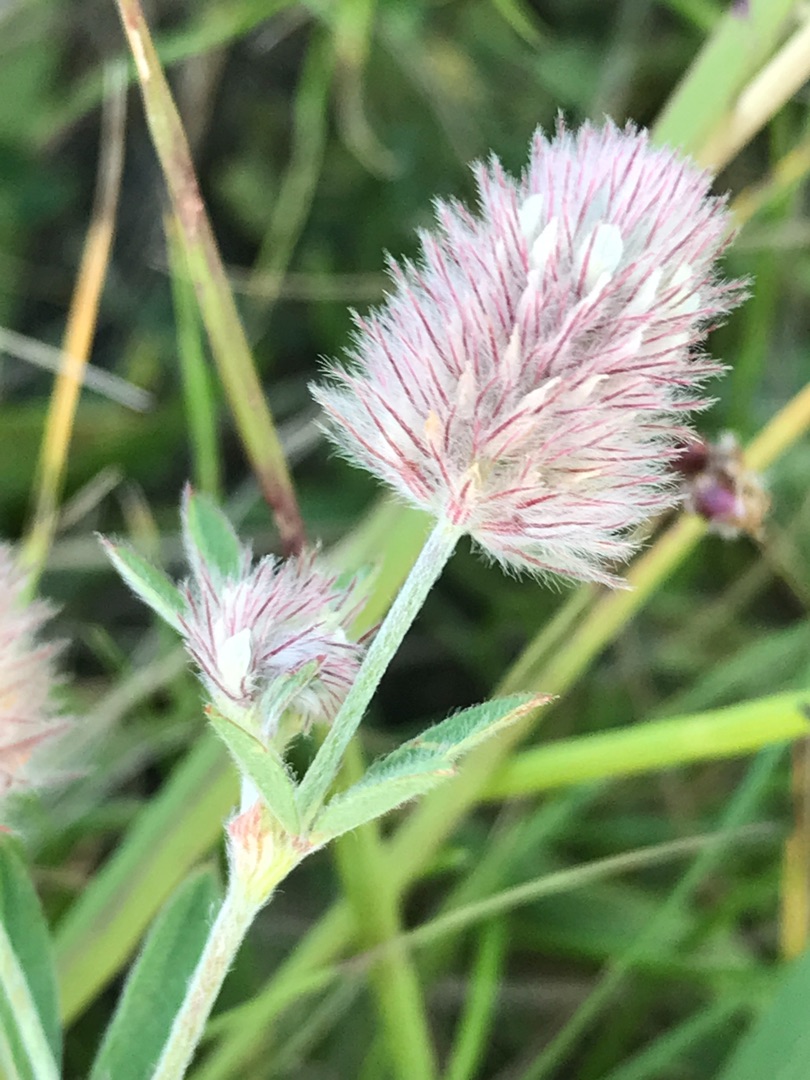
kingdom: Plantae
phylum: Tracheophyta
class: Magnoliopsida
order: Fabales
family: Fabaceae
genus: Trifolium
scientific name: Trifolium arvense
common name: Hare-kløver
